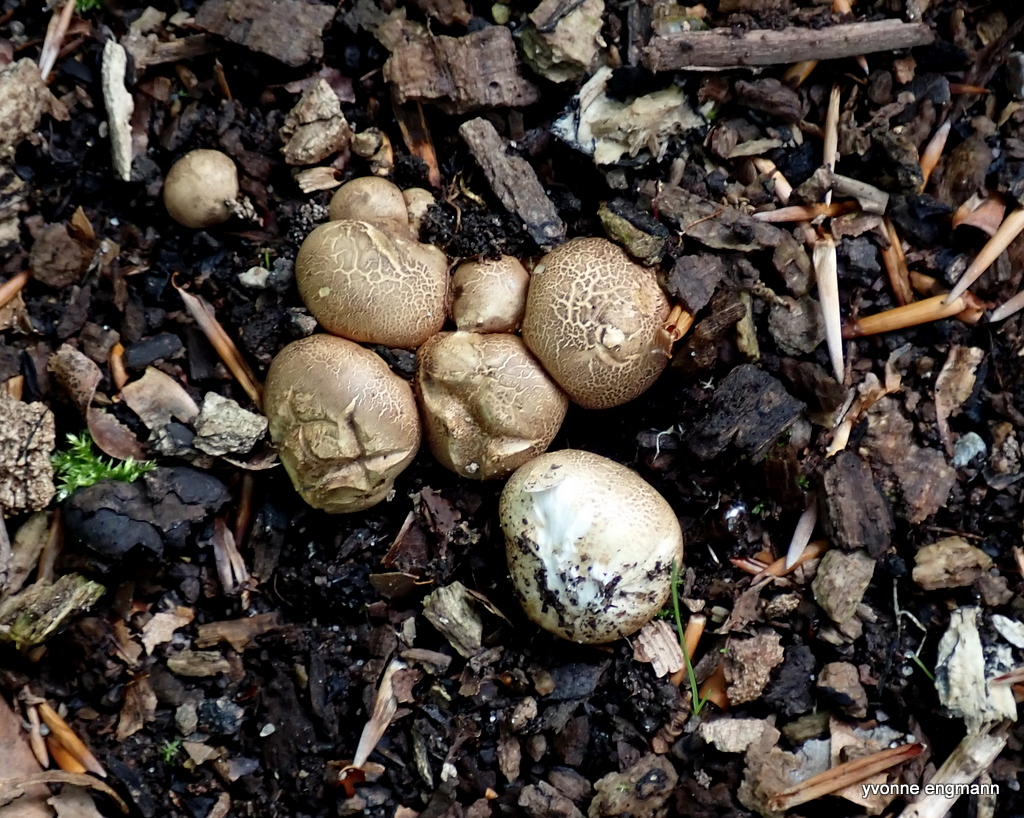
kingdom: Fungi
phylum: Basidiomycota
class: Agaricomycetes
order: Boletales
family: Sclerodermataceae
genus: Scleroderma
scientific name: Scleroderma citrinum
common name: almindelig bruskbold
